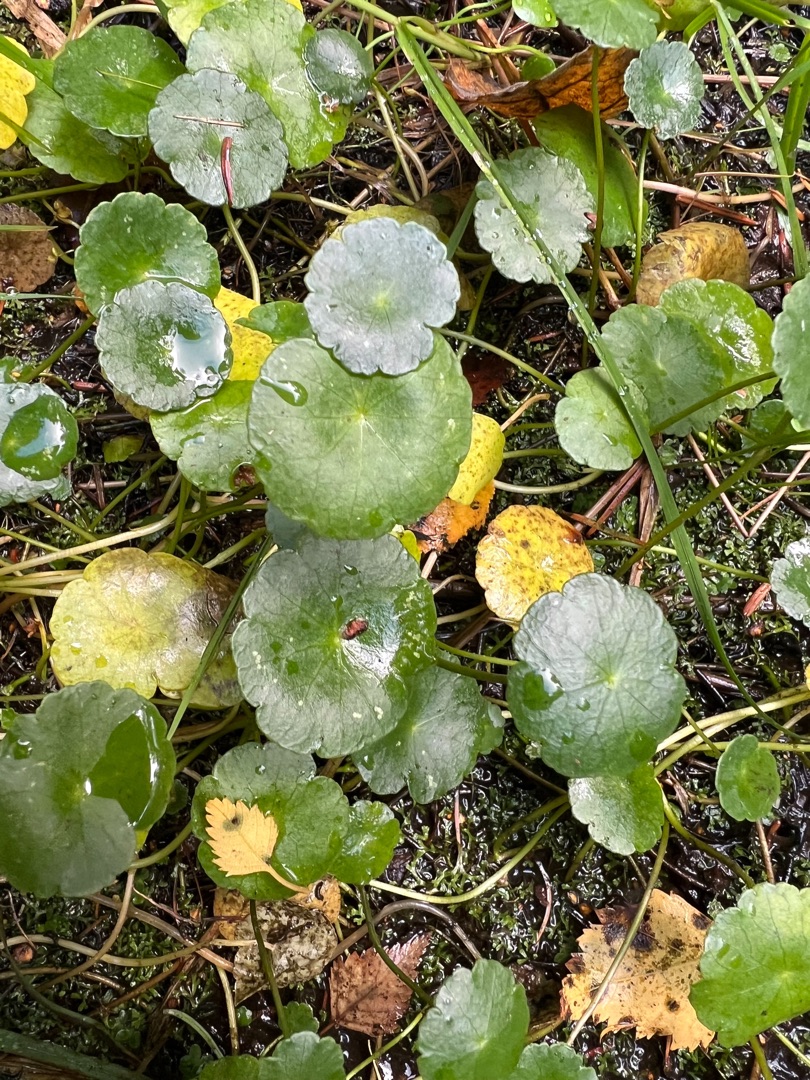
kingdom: Plantae
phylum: Tracheophyta
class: Magnoliopsida
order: Apiales
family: Araliaceae
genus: Hydrocotyle
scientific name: Hydrocotyle vulgaris
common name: Vandnavle
